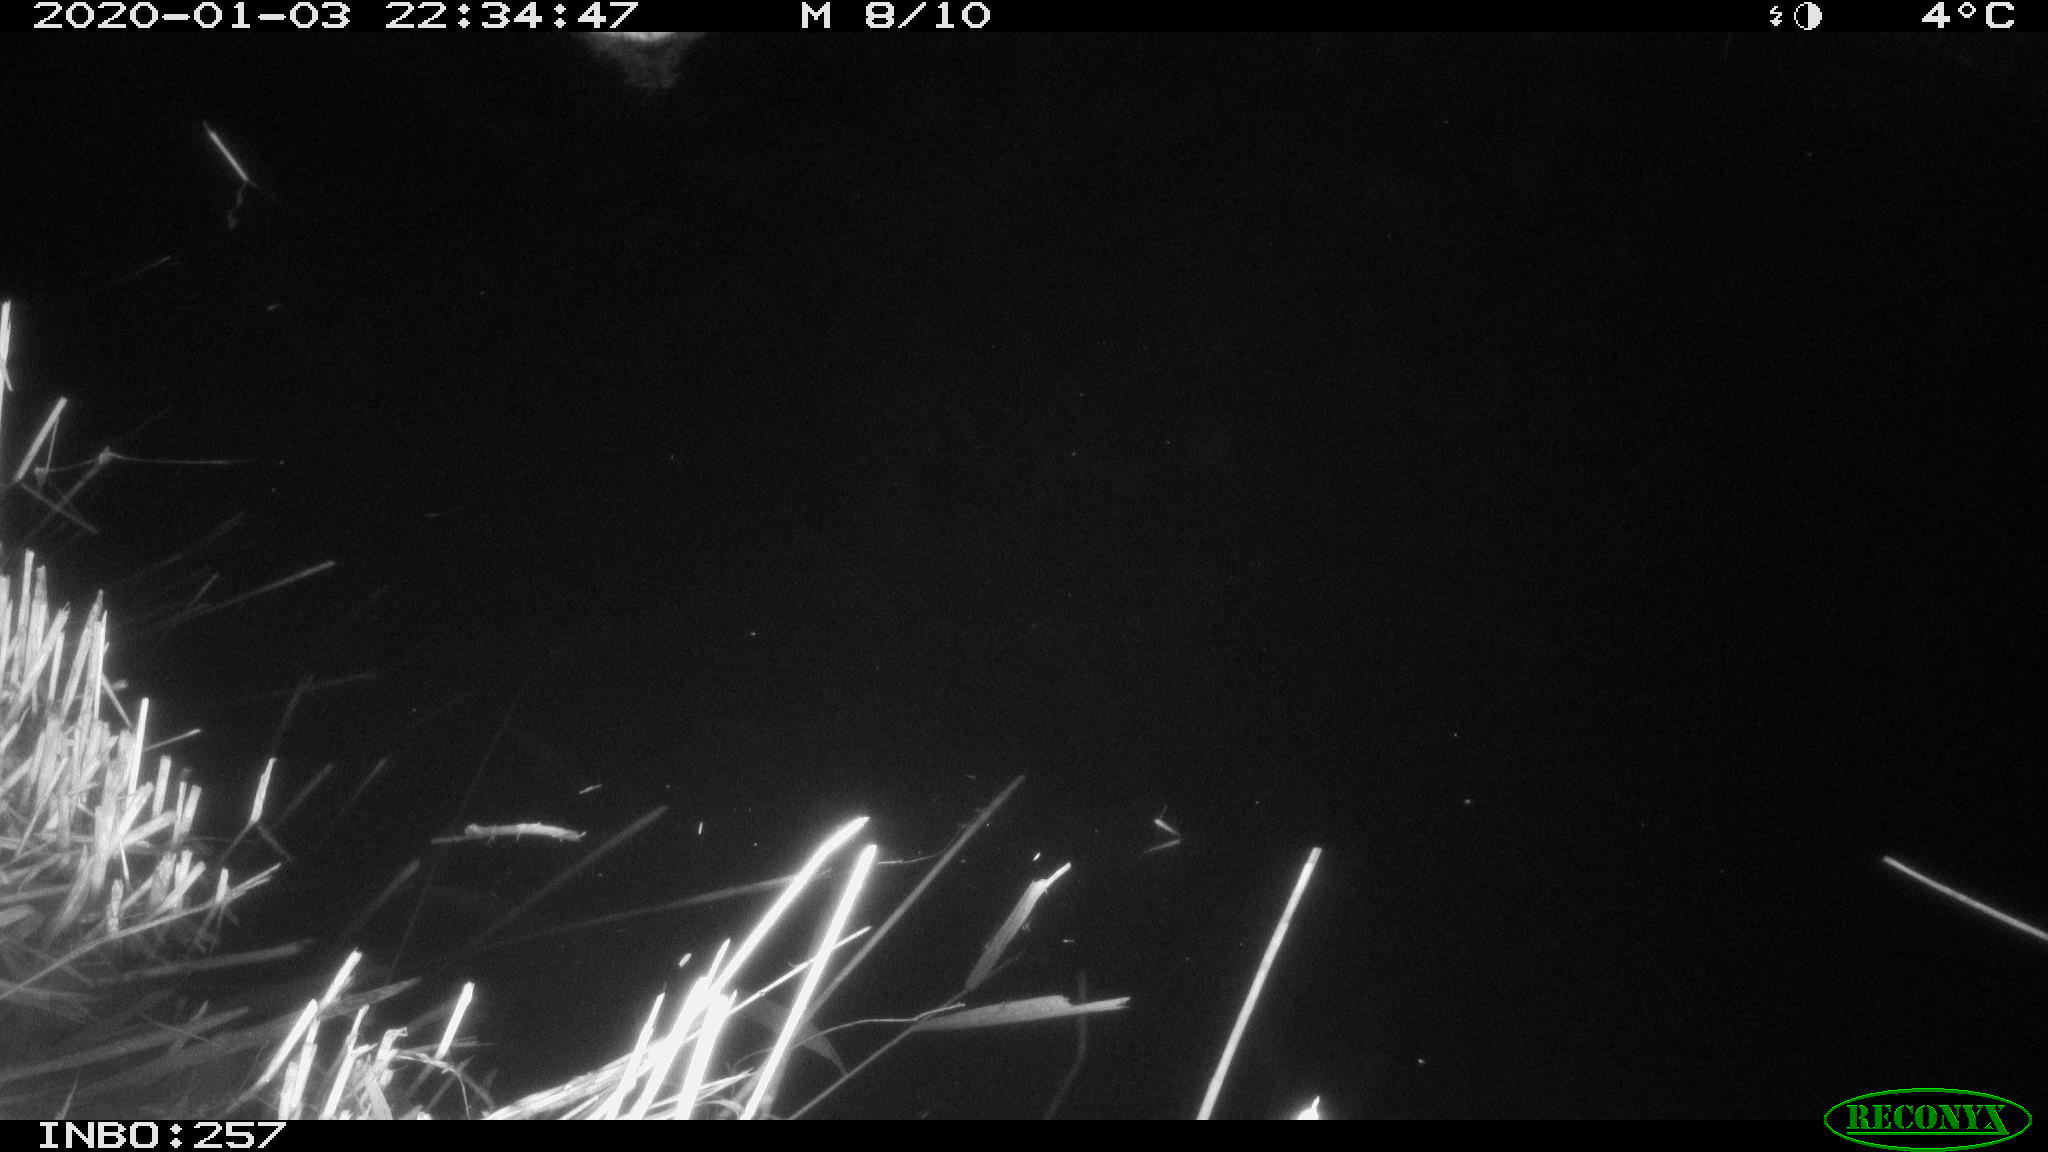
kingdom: Animalia
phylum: Chordata
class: Aves
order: Anseriformes
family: Anatidae
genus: Anas
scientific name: Anas platyrhynchos
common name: Mallard
